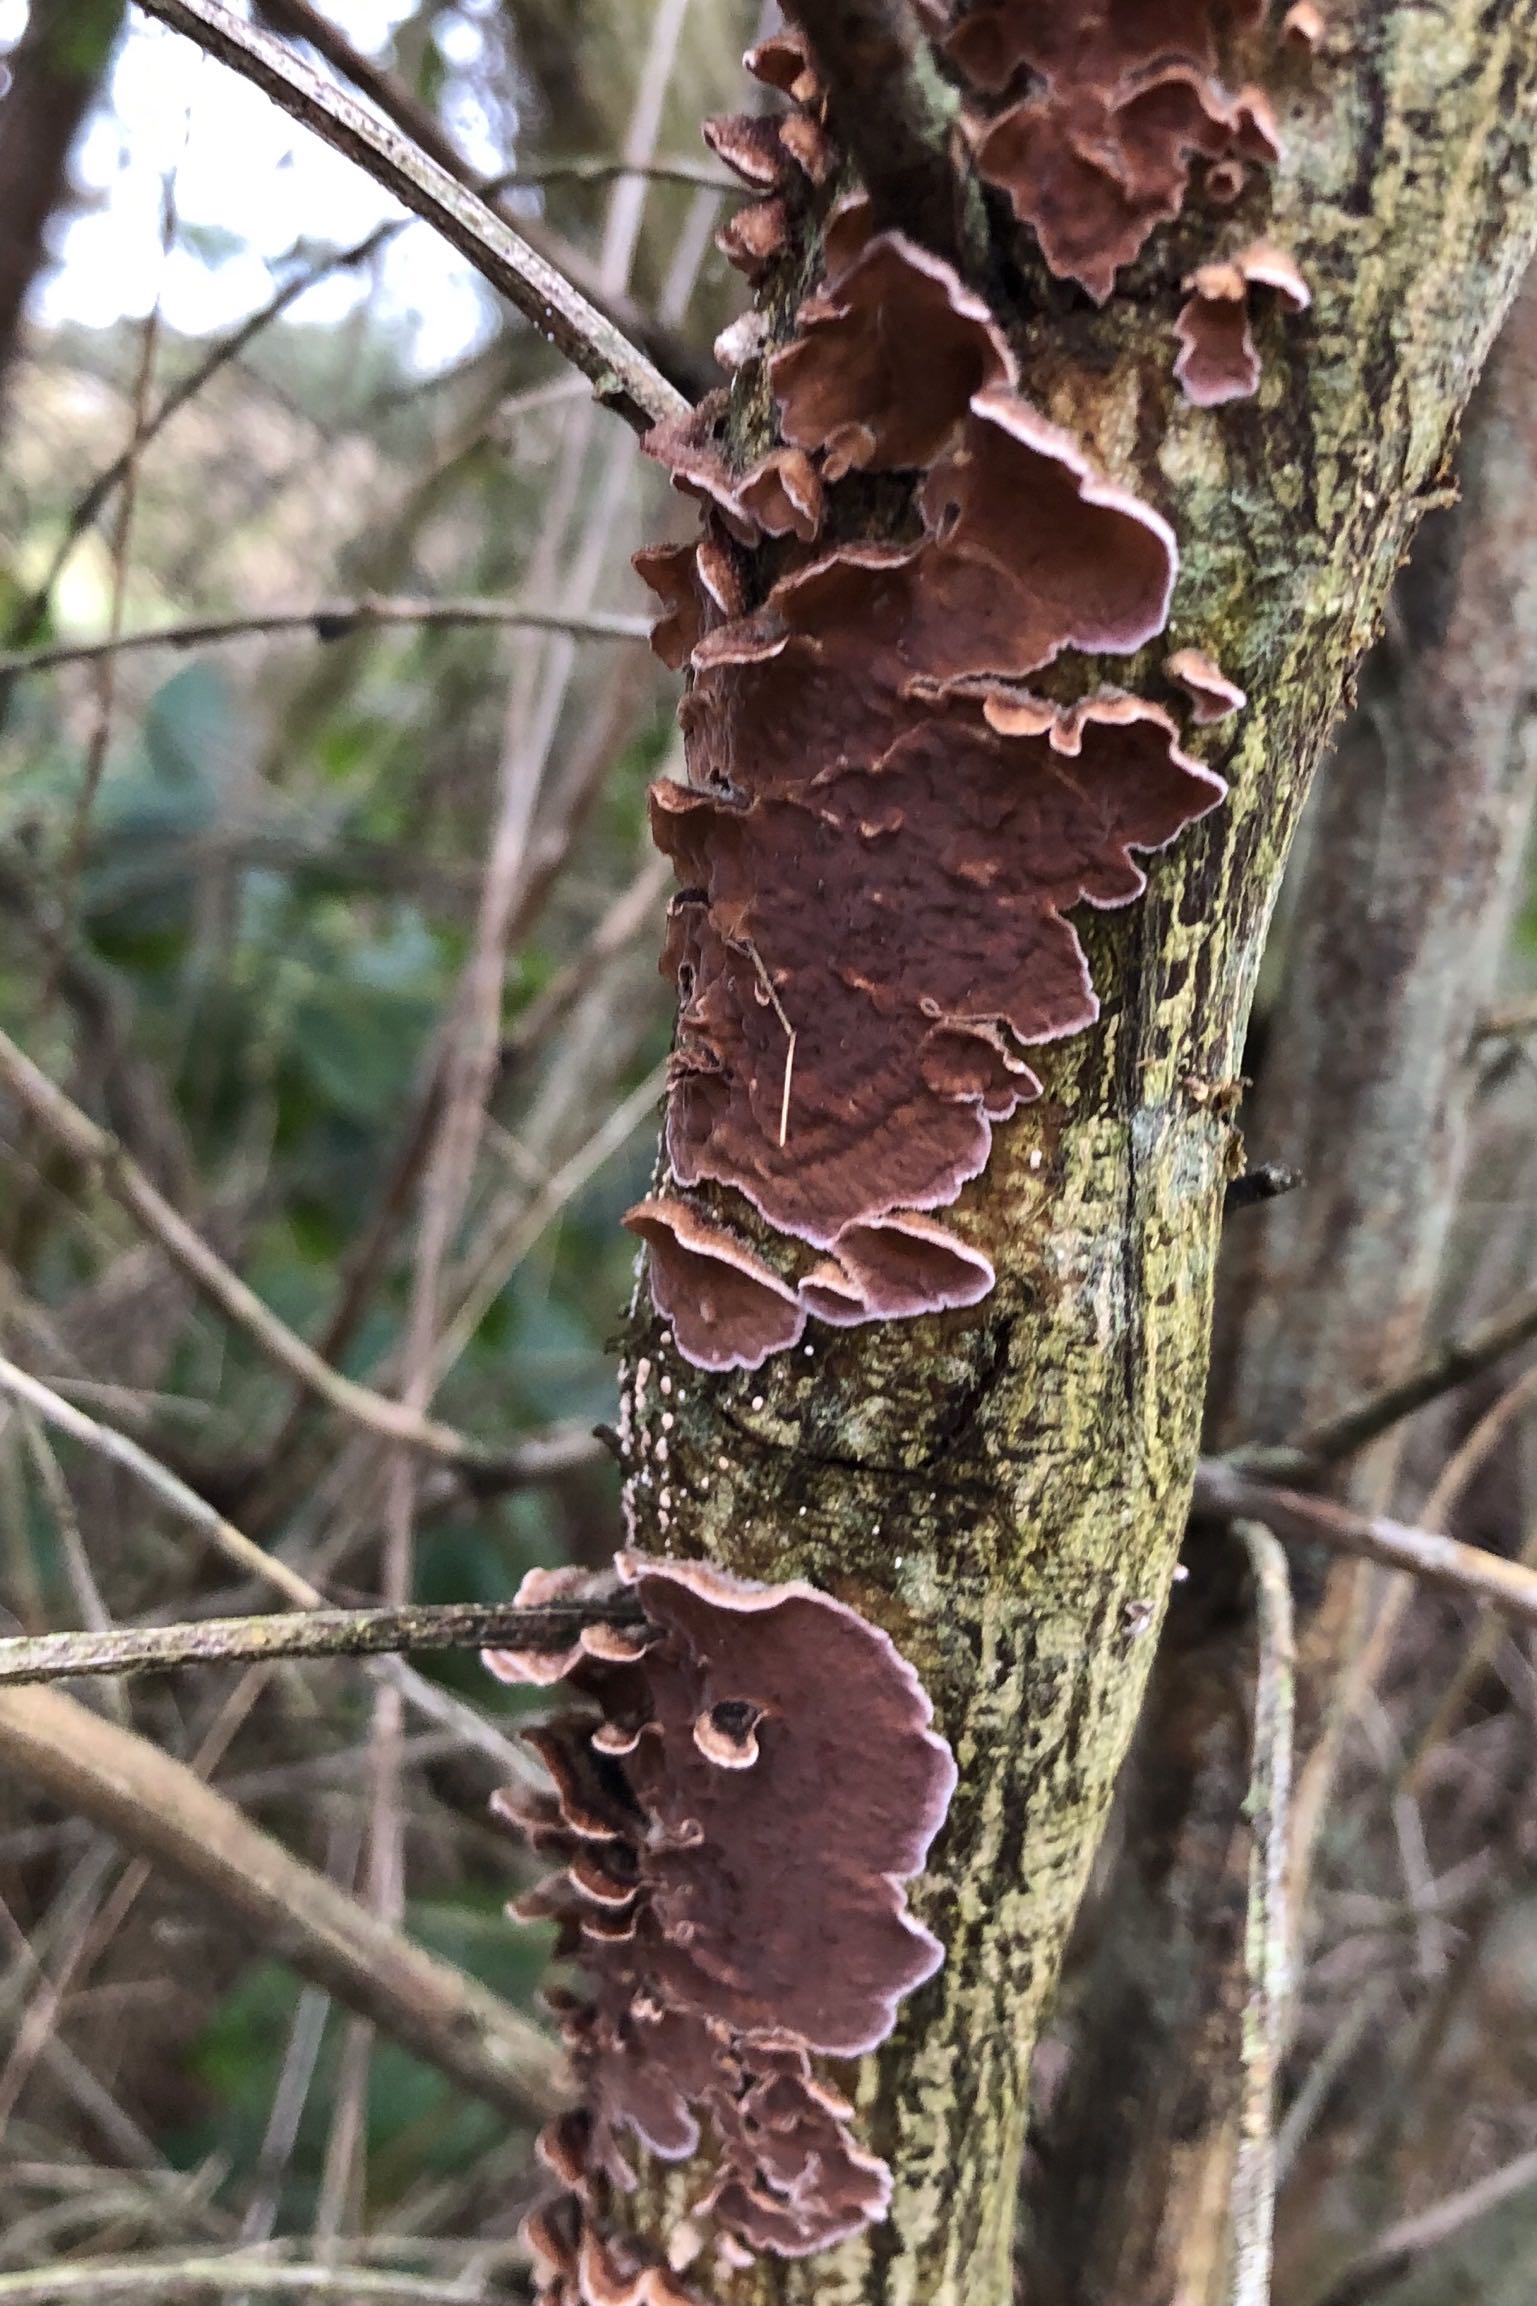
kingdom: Fungi
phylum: Basidiomycota
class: Agaricomycetes
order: Agaricales
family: Cyphellaceae
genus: Chondrostereum
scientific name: Chondrostereum purpureum
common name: purpurlædersvamp
